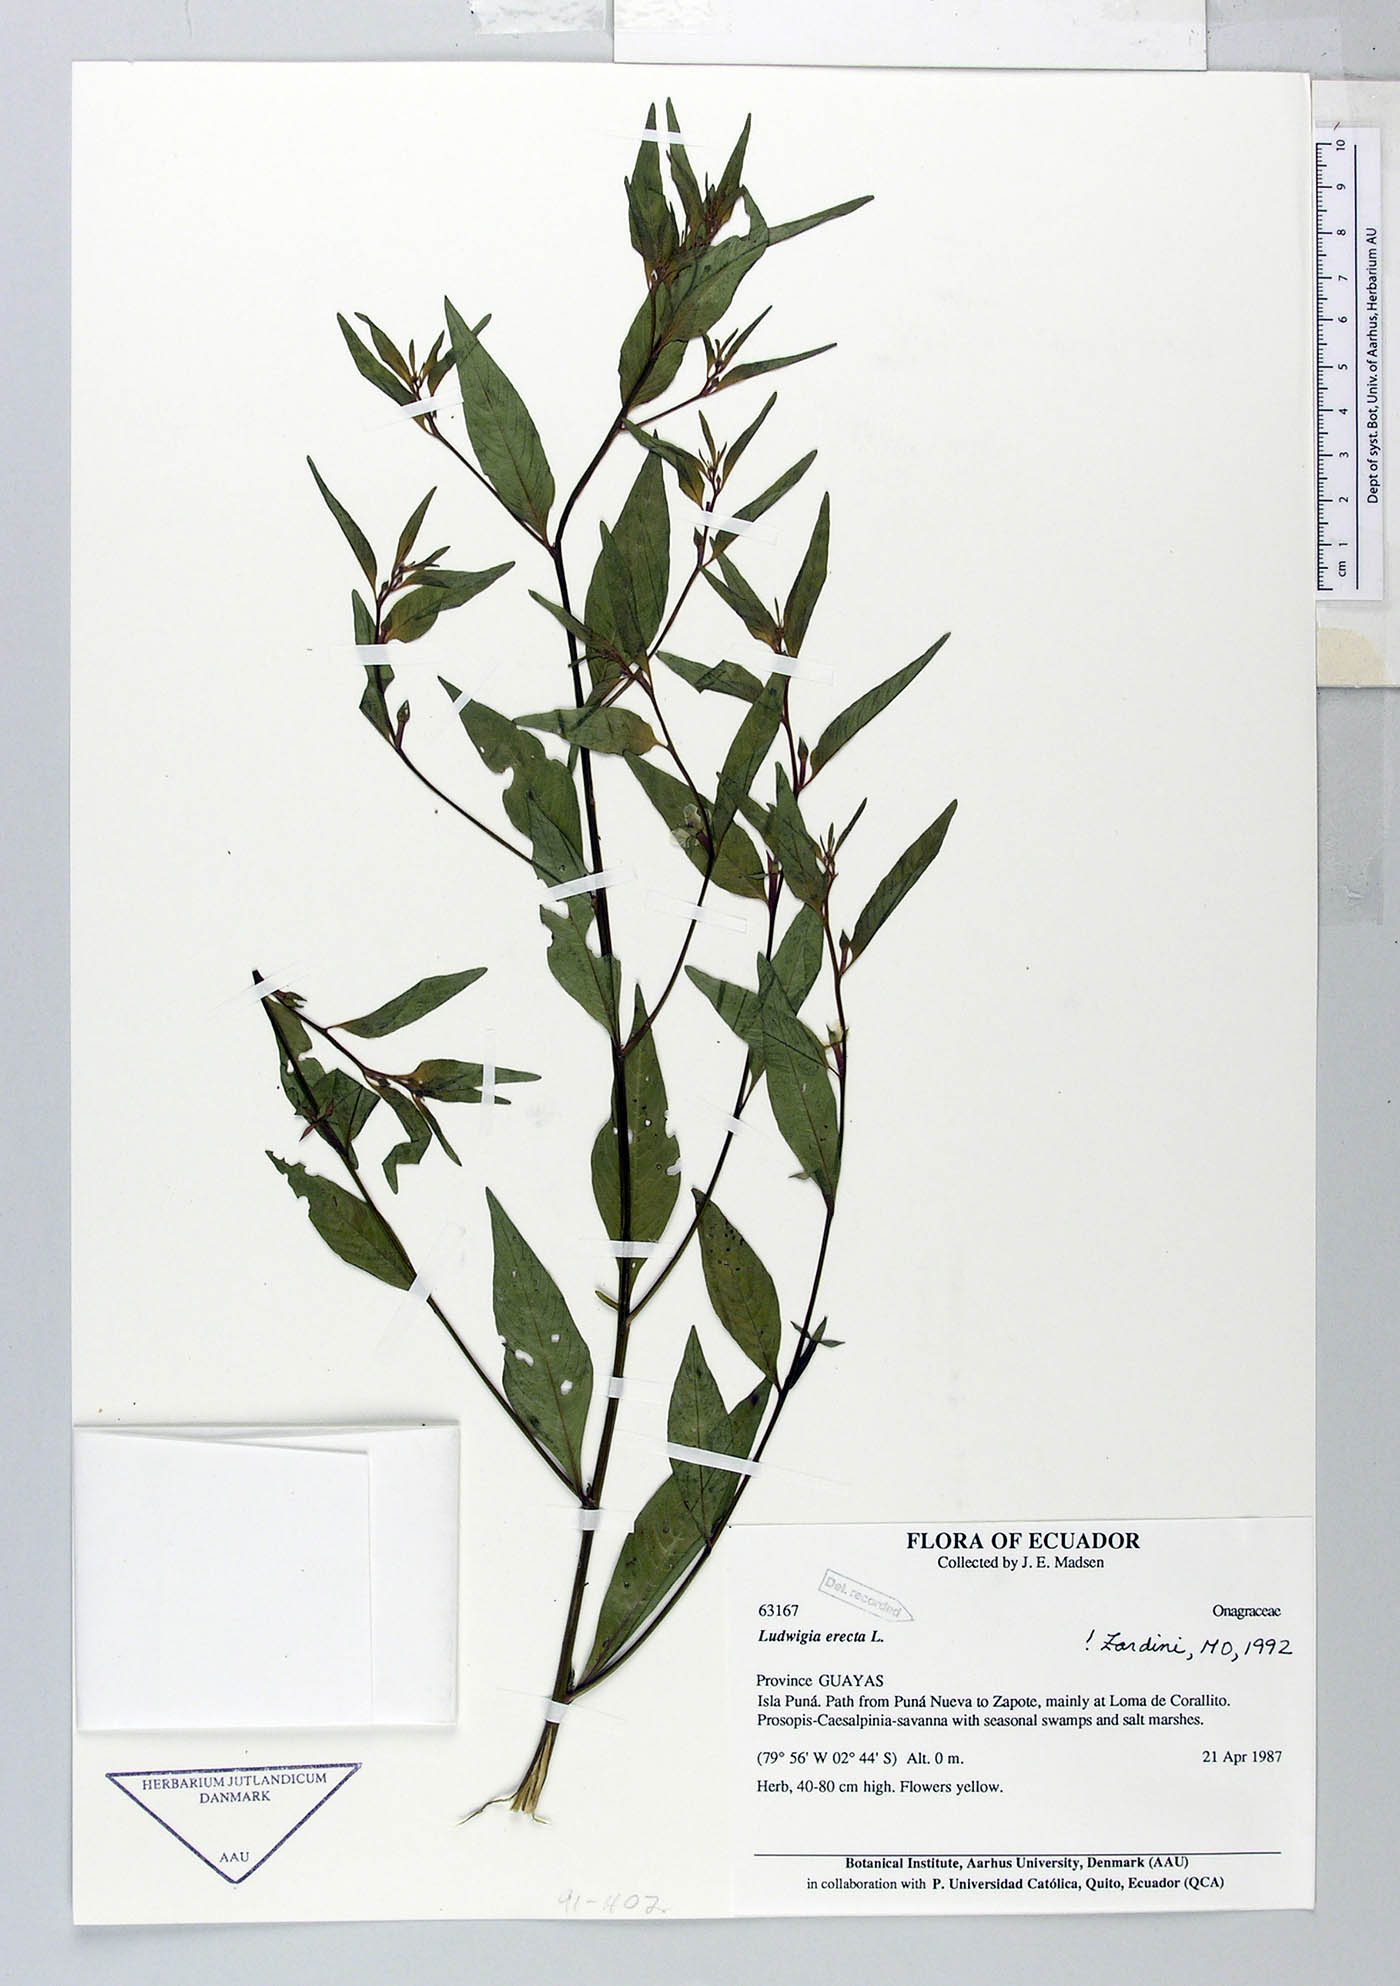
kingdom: Plantae
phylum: Tracheophyta
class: Magnoliopsida
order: Myrtales
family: Onagraceae
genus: Ludwigia
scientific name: Ludwigia erecta
